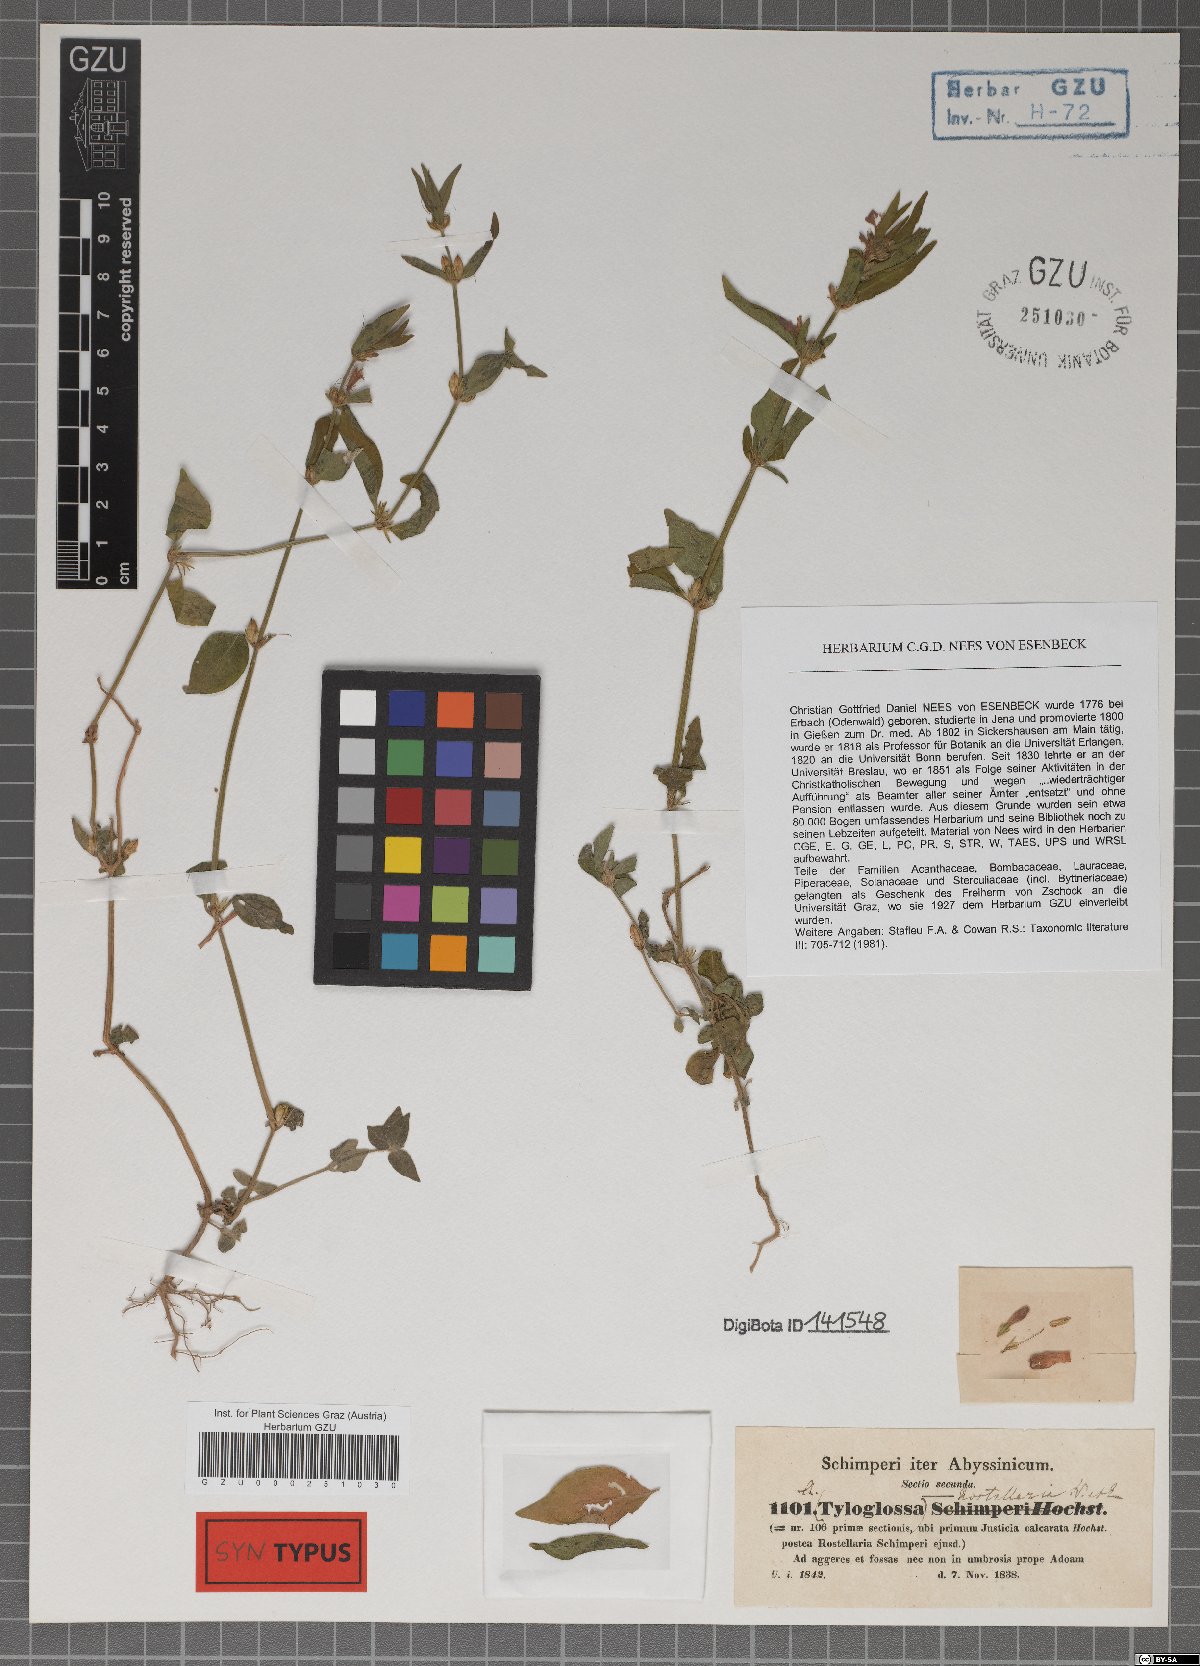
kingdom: Plantae
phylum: Tracheophyta
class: Magnoliopsida
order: Lamiales
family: Acanthaceae
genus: Justicia
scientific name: Justicia ladanoides
